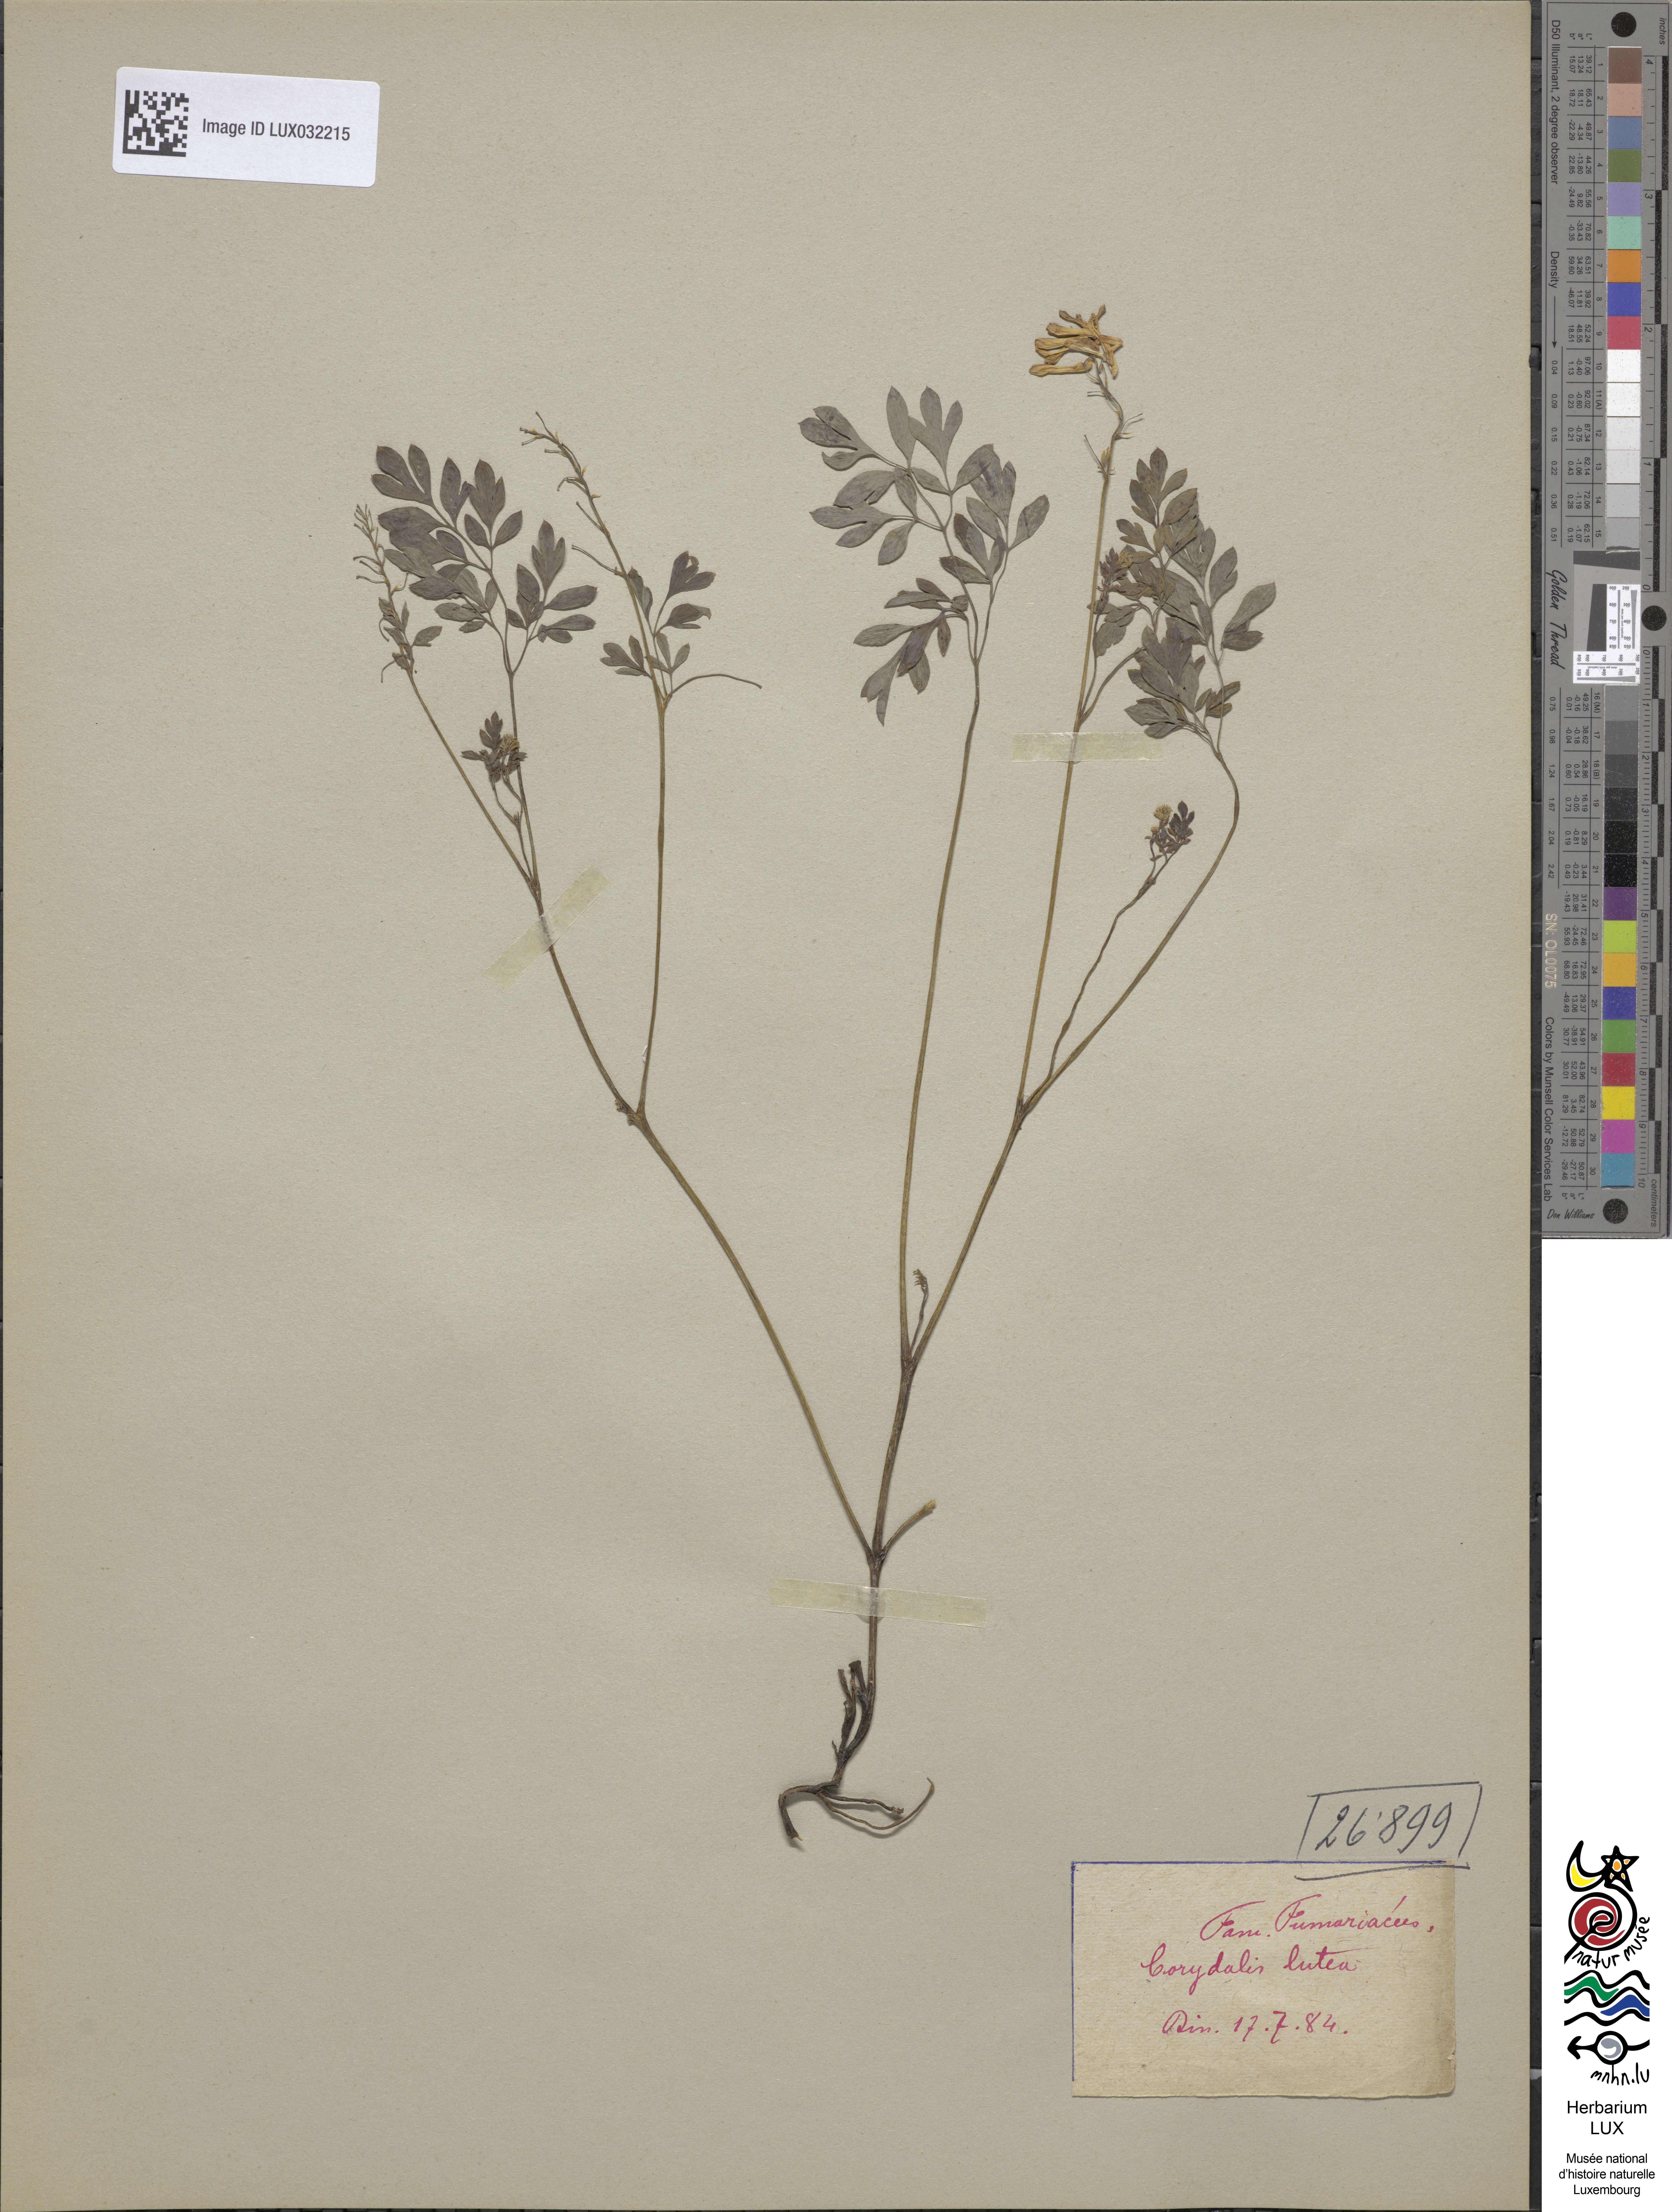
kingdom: Plantae
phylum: Tracheophyta
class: Magnoliopsida
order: Ranunculales
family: Papaveraceae
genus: Pseudofumaria
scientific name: Pseudofumaria lutea
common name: Yellow corydalis
